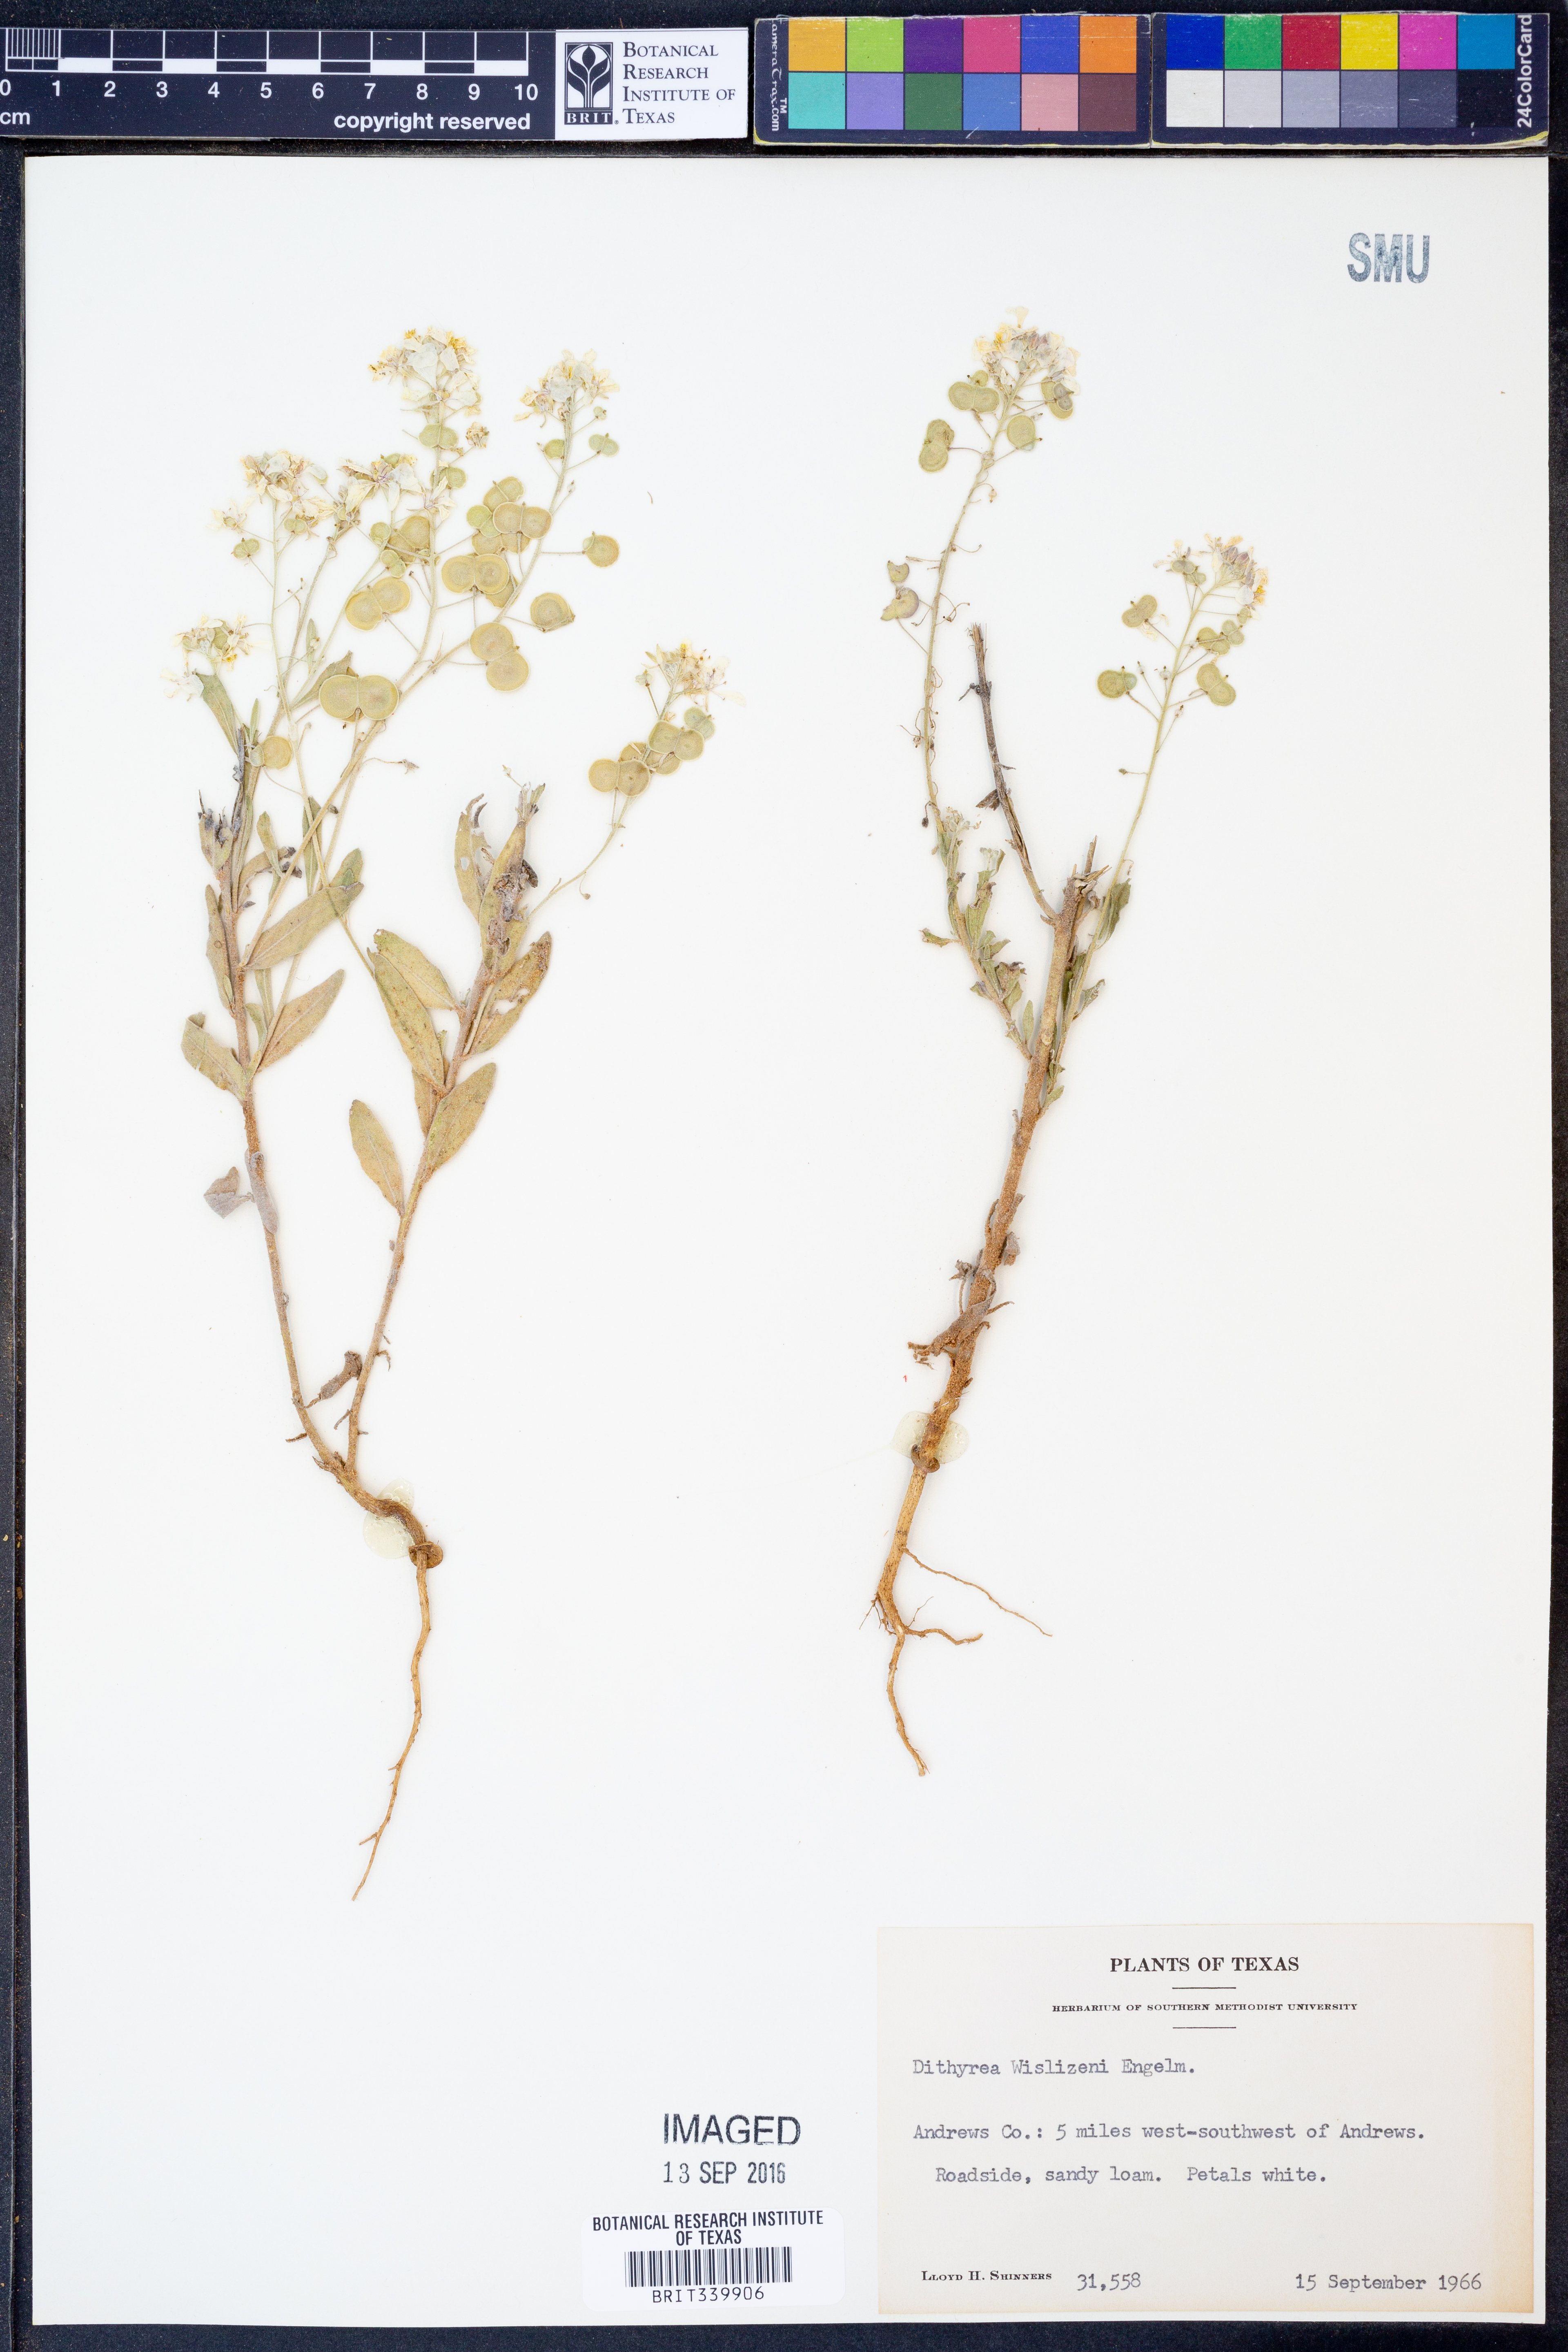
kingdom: Plantae
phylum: Tracheophyta
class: Magnoliopsida
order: Brassicales
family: Brassicaceae
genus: Dimorphocarpa
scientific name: Dimorphocarpa wislizenii
